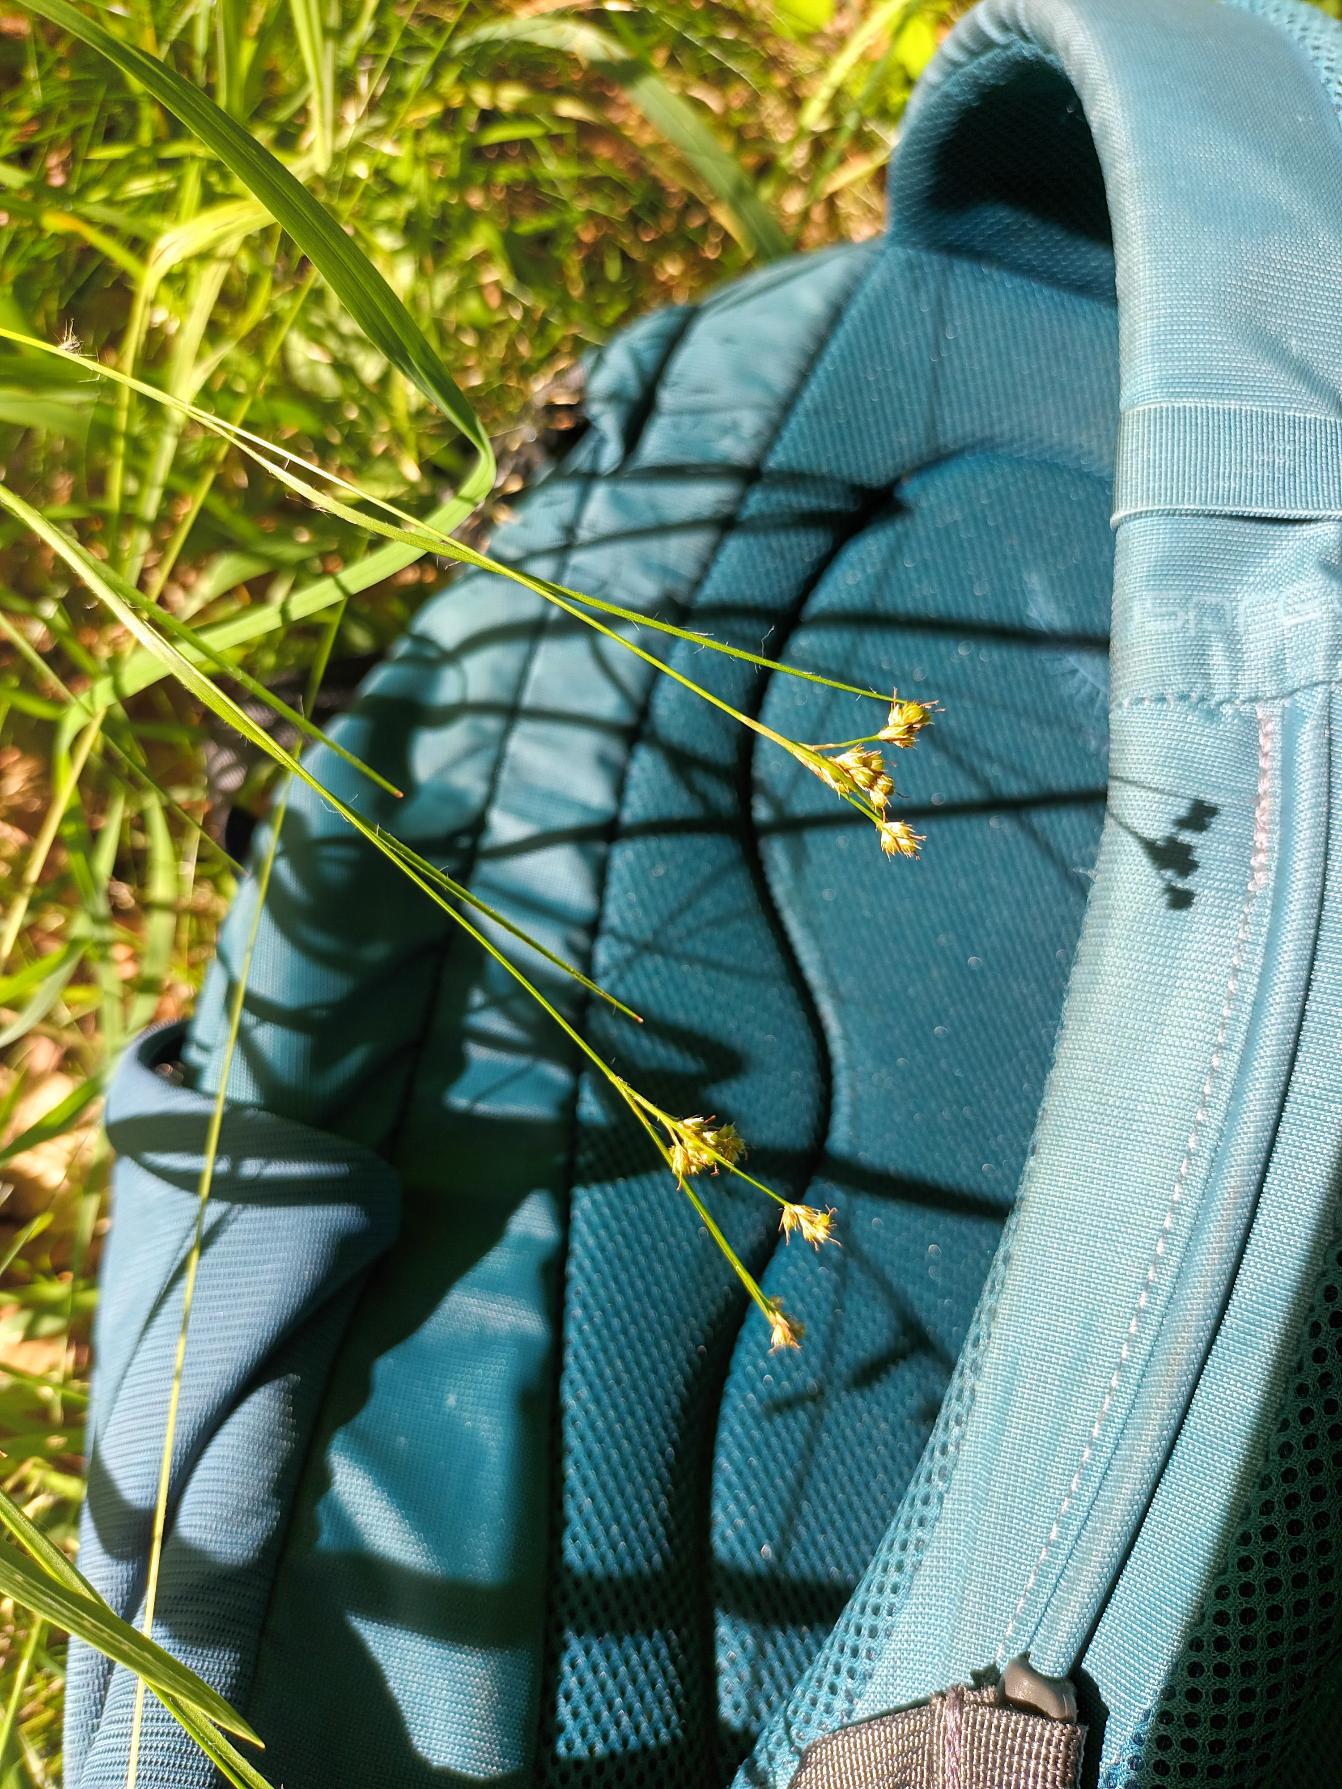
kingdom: Plantae
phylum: Tracheophyta
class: Liliopsida
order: Poales
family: Juncaceae
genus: Luzula
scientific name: Luzula multiflora
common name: Mangeblomstret frytle
